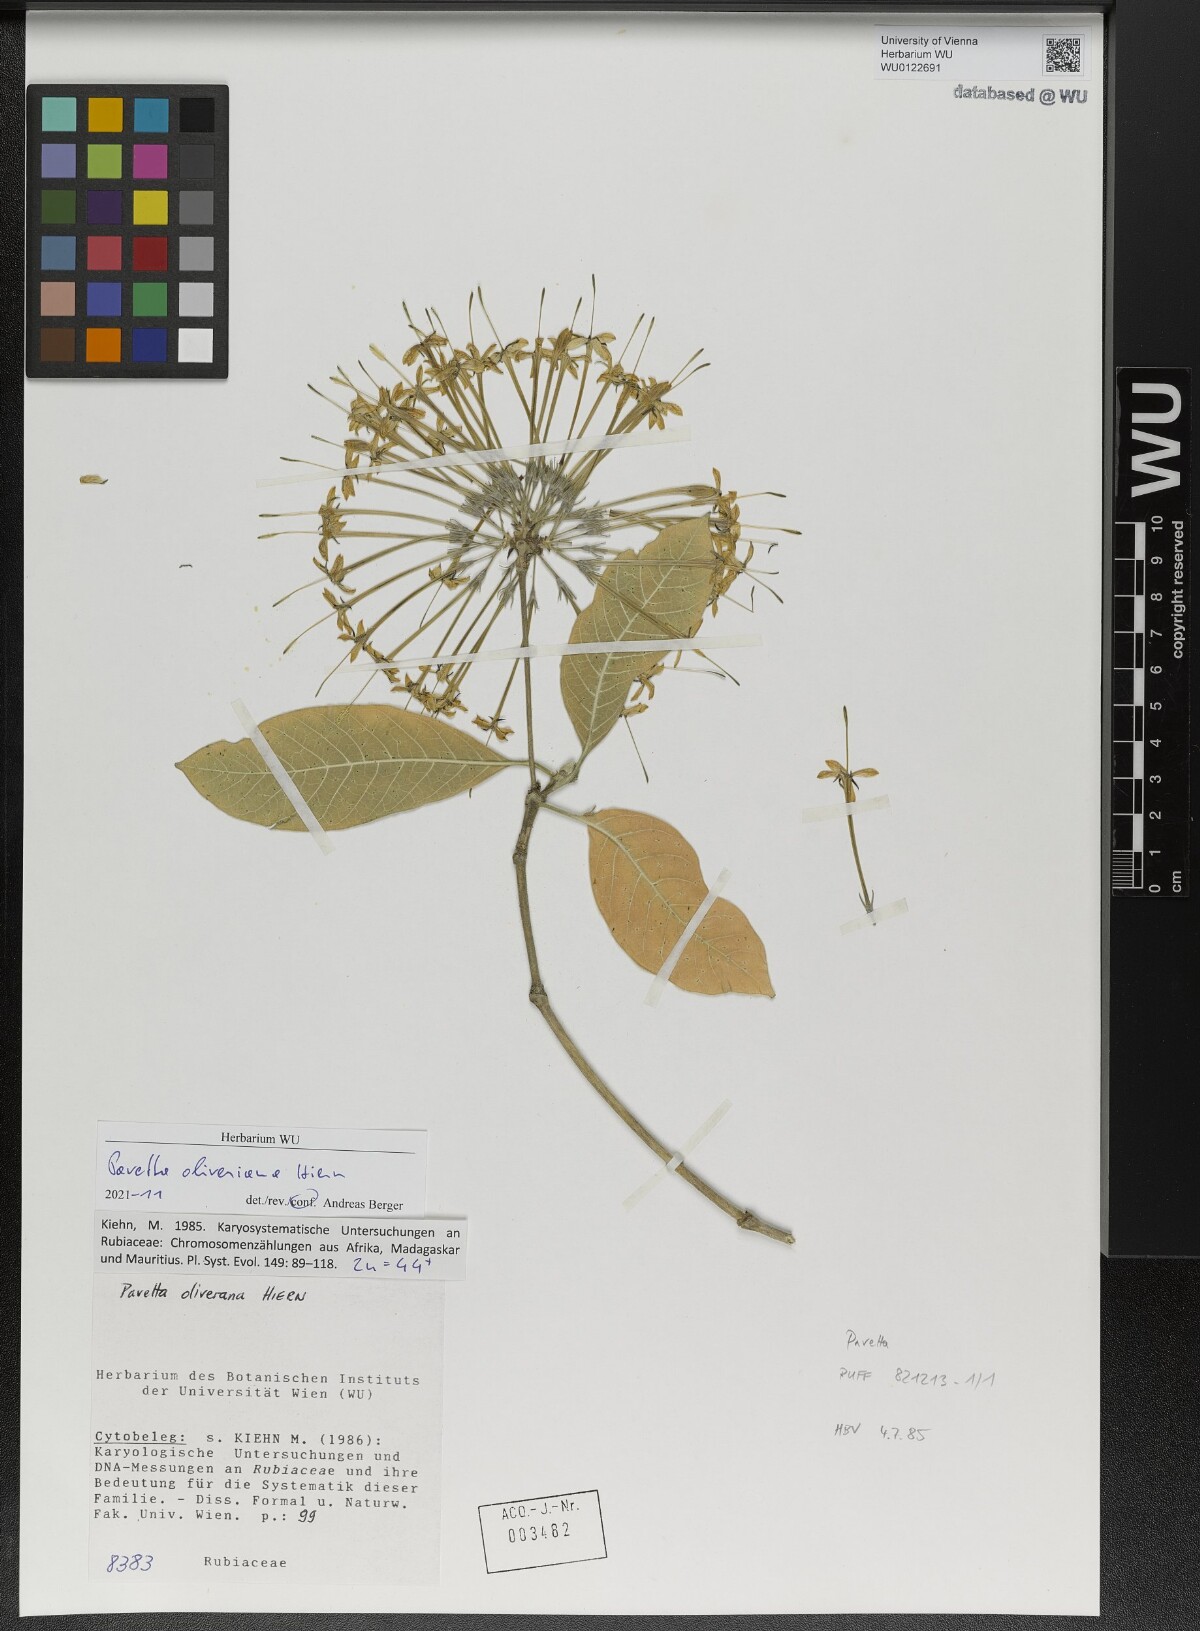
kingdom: Plantae
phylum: Tracheophyta
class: Magnoliopsida
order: Gentianales
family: Rubiaceae
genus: Pavetta
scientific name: Pavetta oliveriana
